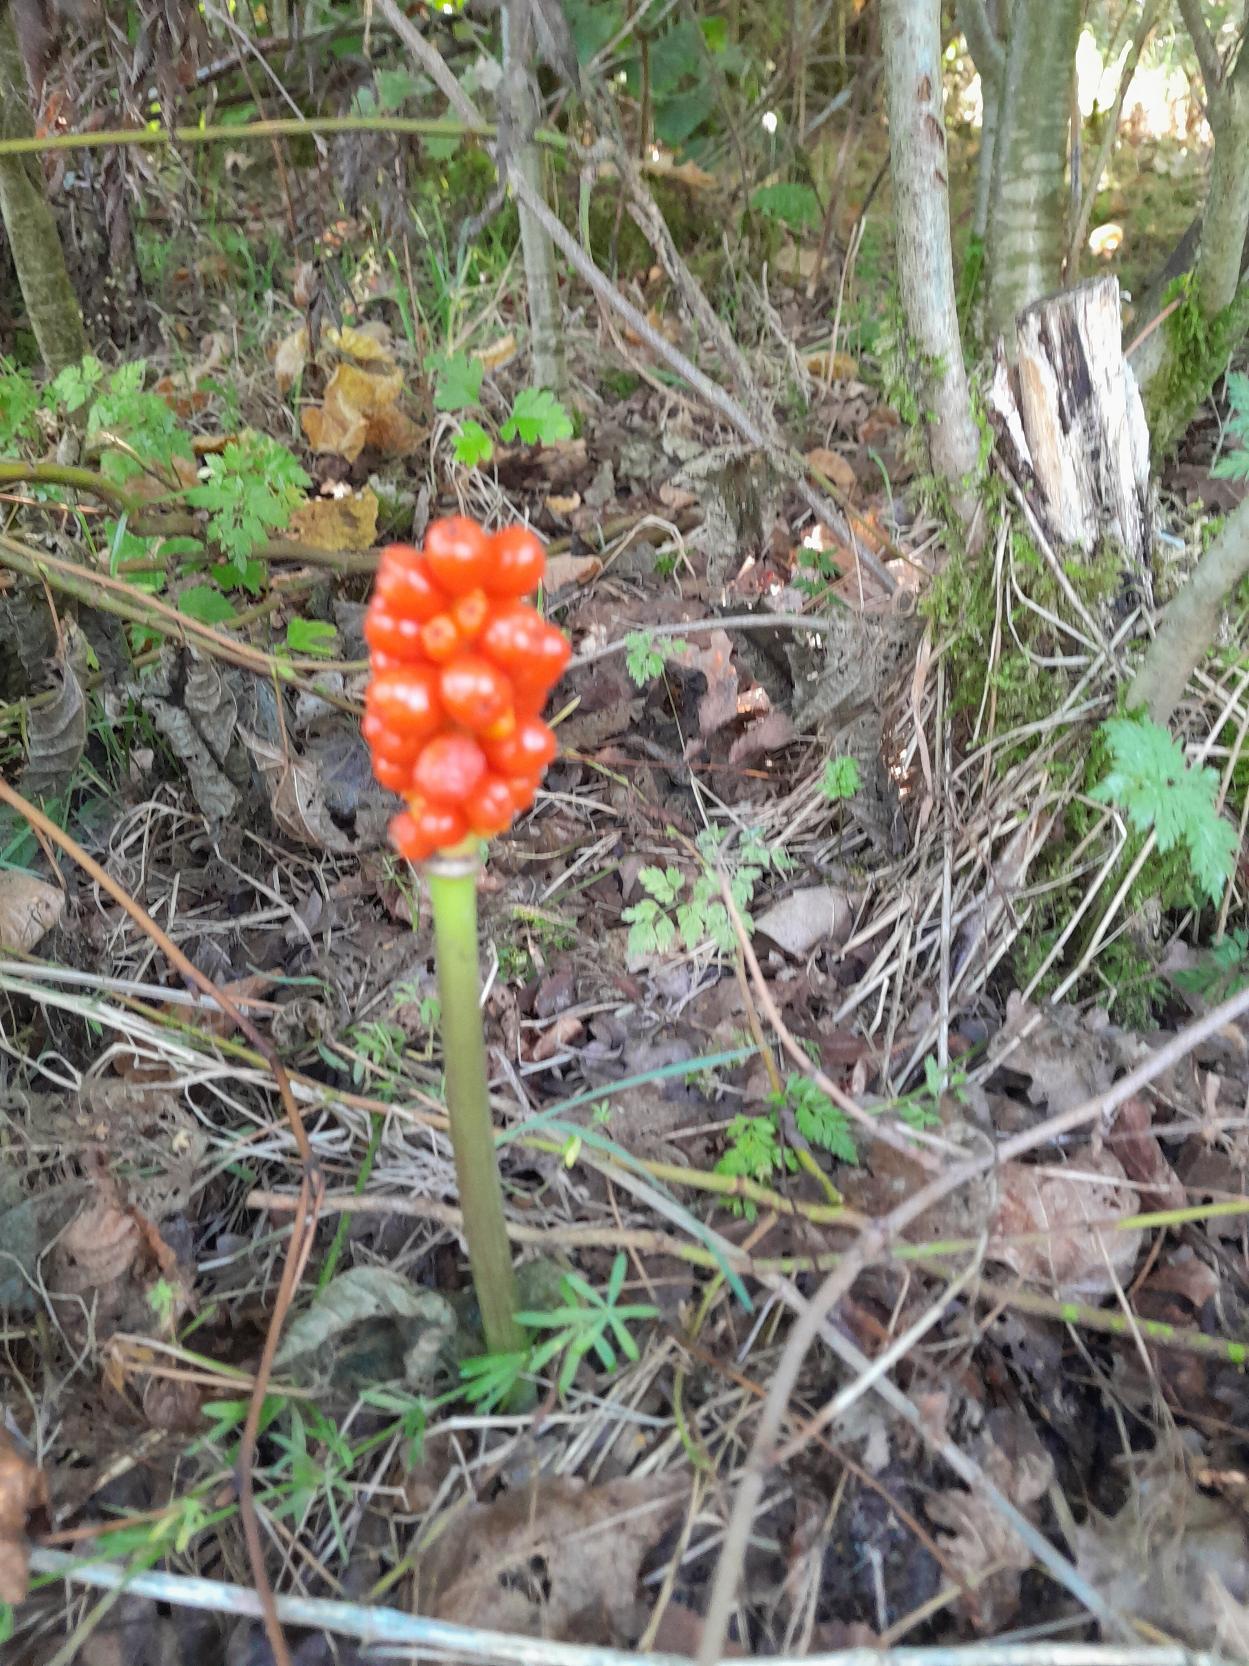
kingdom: Plantae
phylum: Tracheophyta
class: Liliopsida
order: Alismatales
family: Araceae
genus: Arum
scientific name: Arum
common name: Arumslægten
